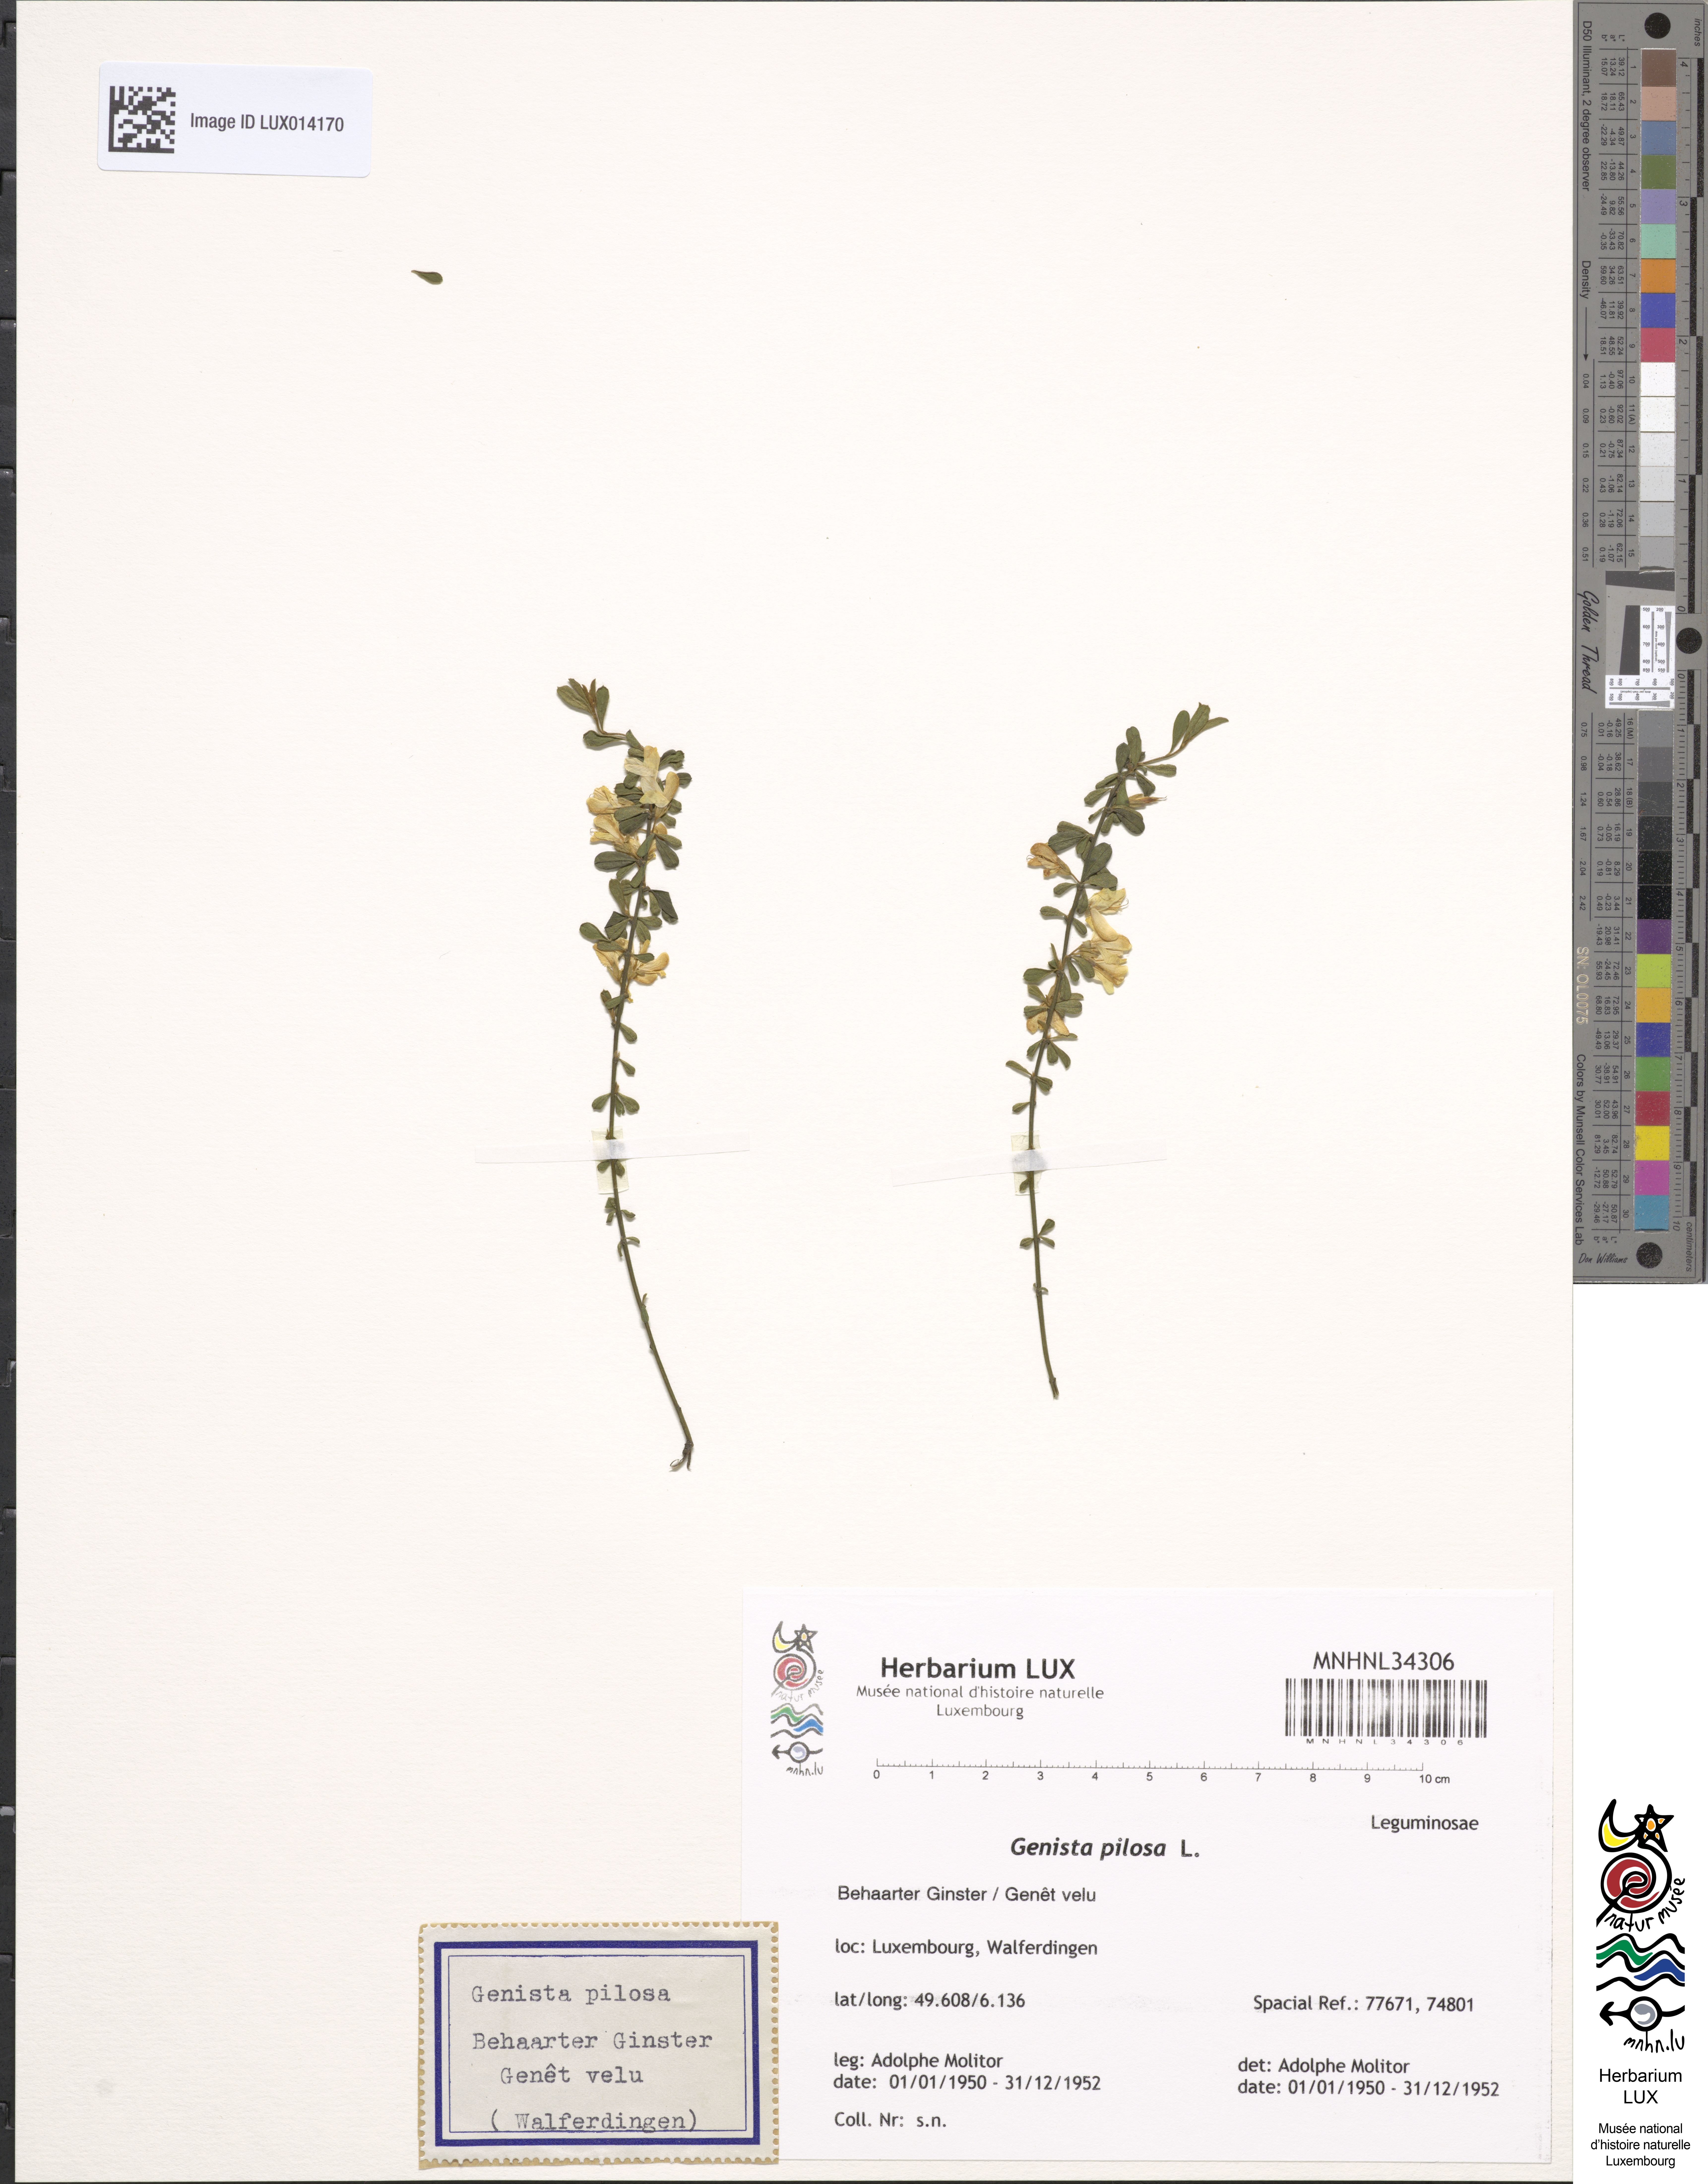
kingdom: Plantae
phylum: Tracheophyta
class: Magnoliopsida
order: Fabales
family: Fabaceae
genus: Genista
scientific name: Genista pilosa
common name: Hairy greenweed
